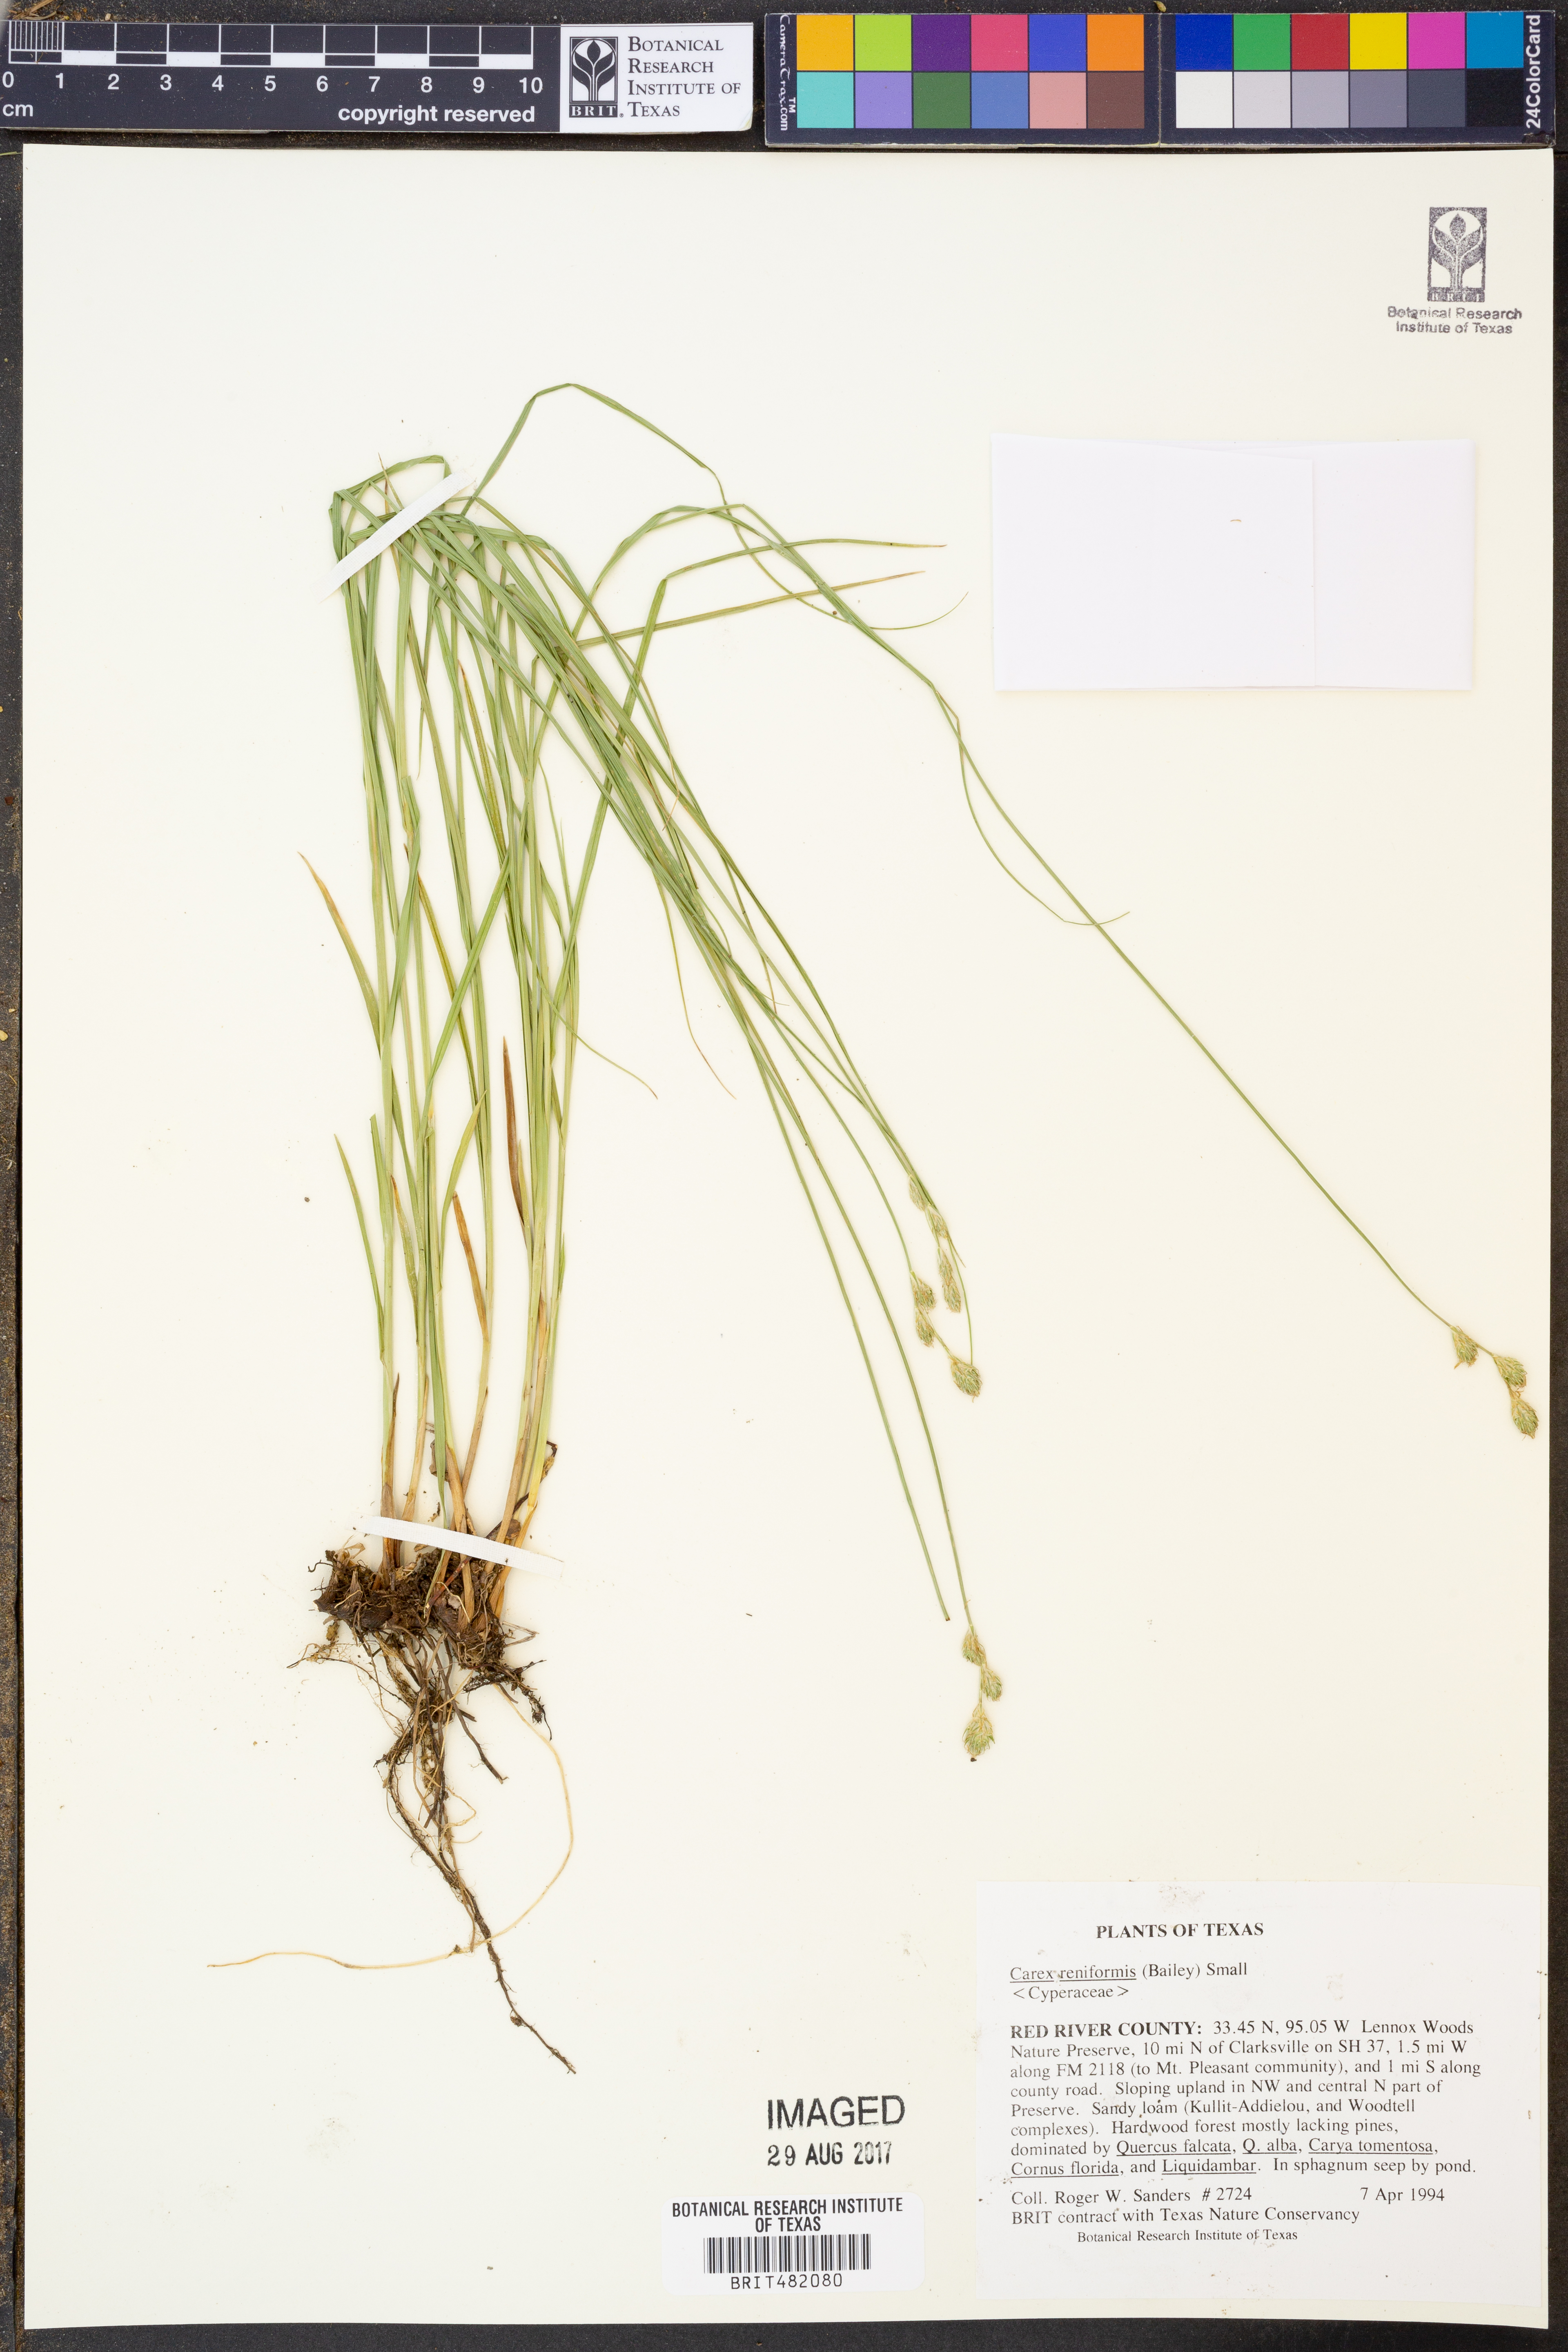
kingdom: Plantae
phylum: Tracheophyta
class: Liliopsida
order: Poales
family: Cyperaceae
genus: Carex
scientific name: Carex reniformis
